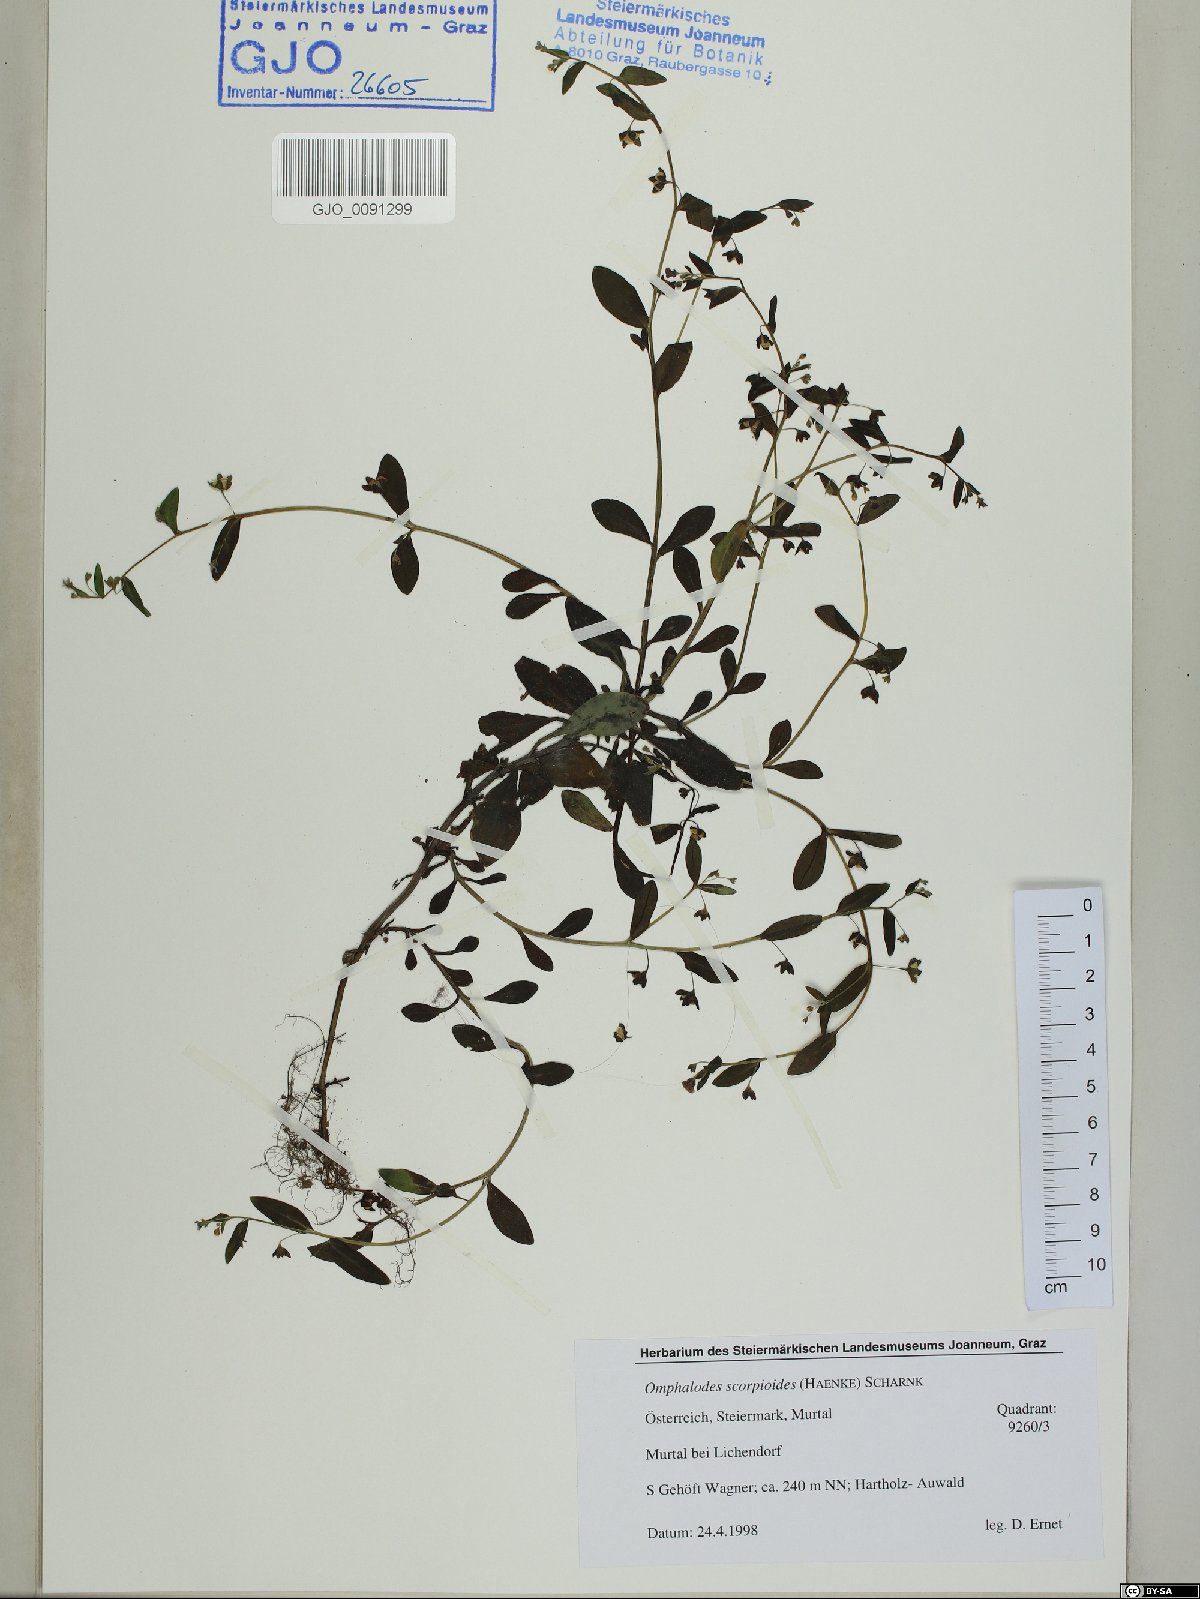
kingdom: Plantae
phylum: Tracheophyta
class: Magnoliopsida
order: Boraginales
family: Boraginaceae
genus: Memoremea
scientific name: Memoremea scorpioides
